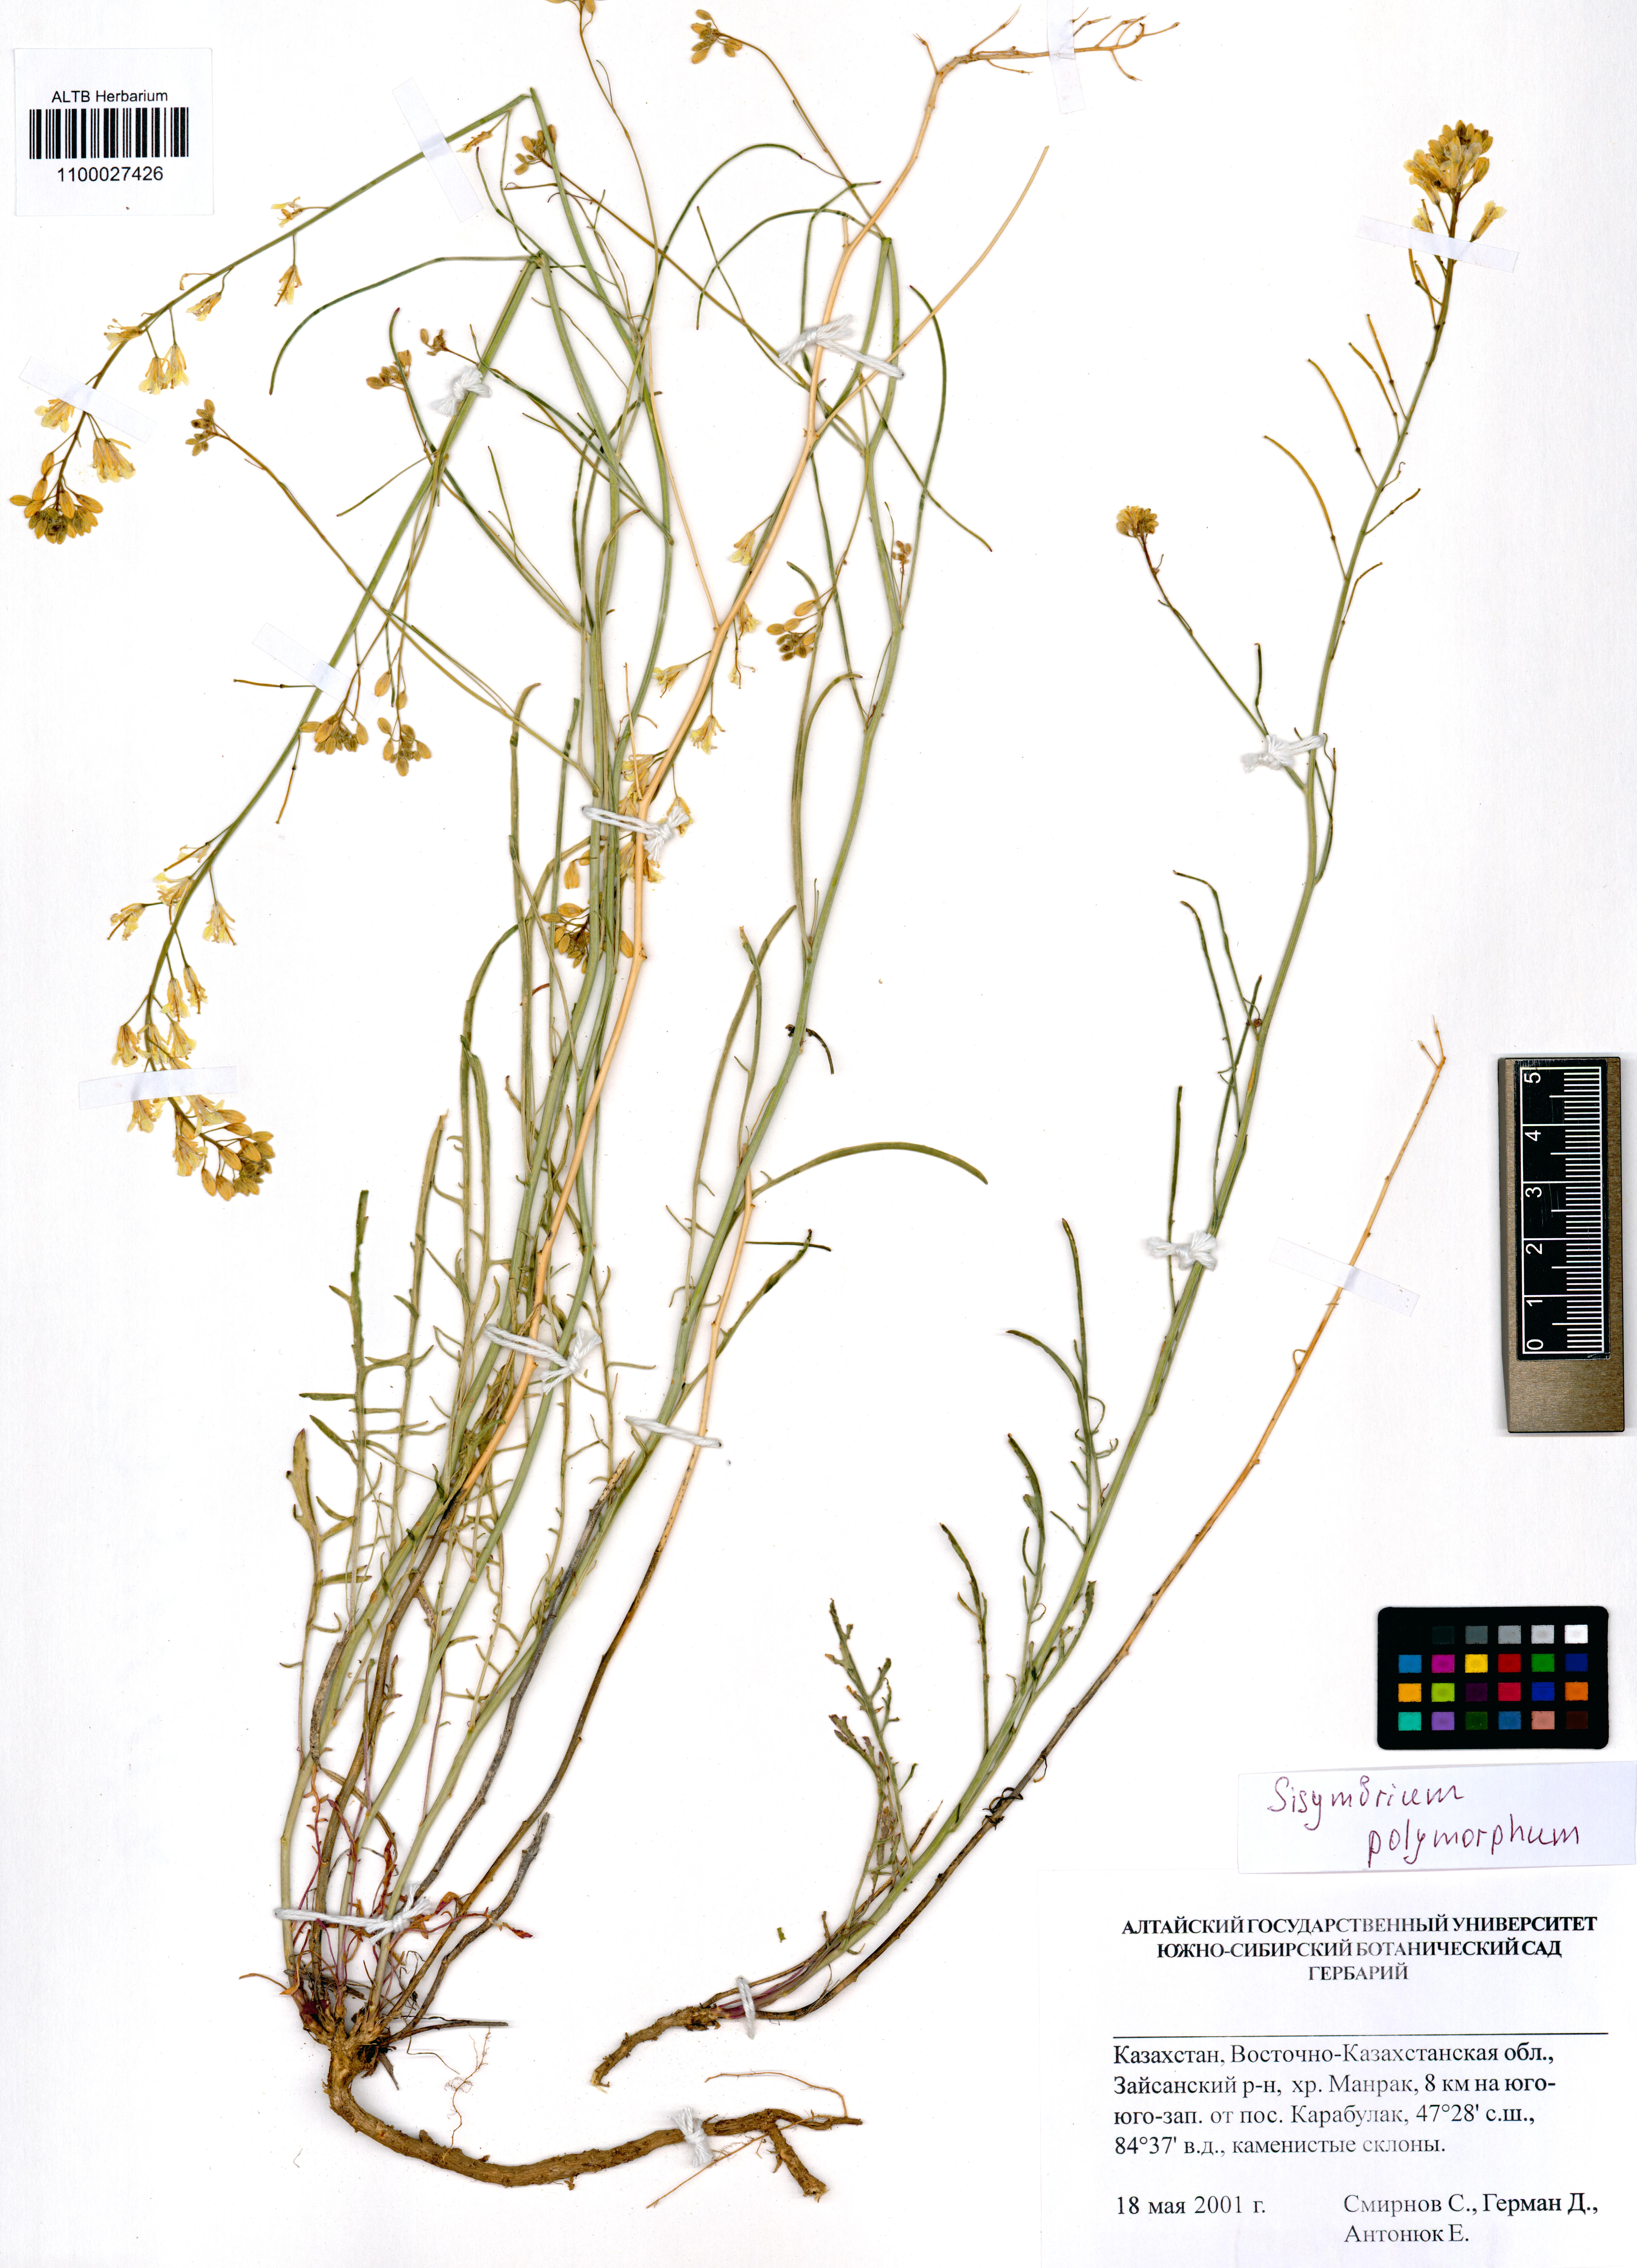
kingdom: Plantae
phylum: Tracheophyta
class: Magnoliopsida
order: Brassicales
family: Brassicaceae
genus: Sisymbrium
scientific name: Sisymbrium polymorphum
